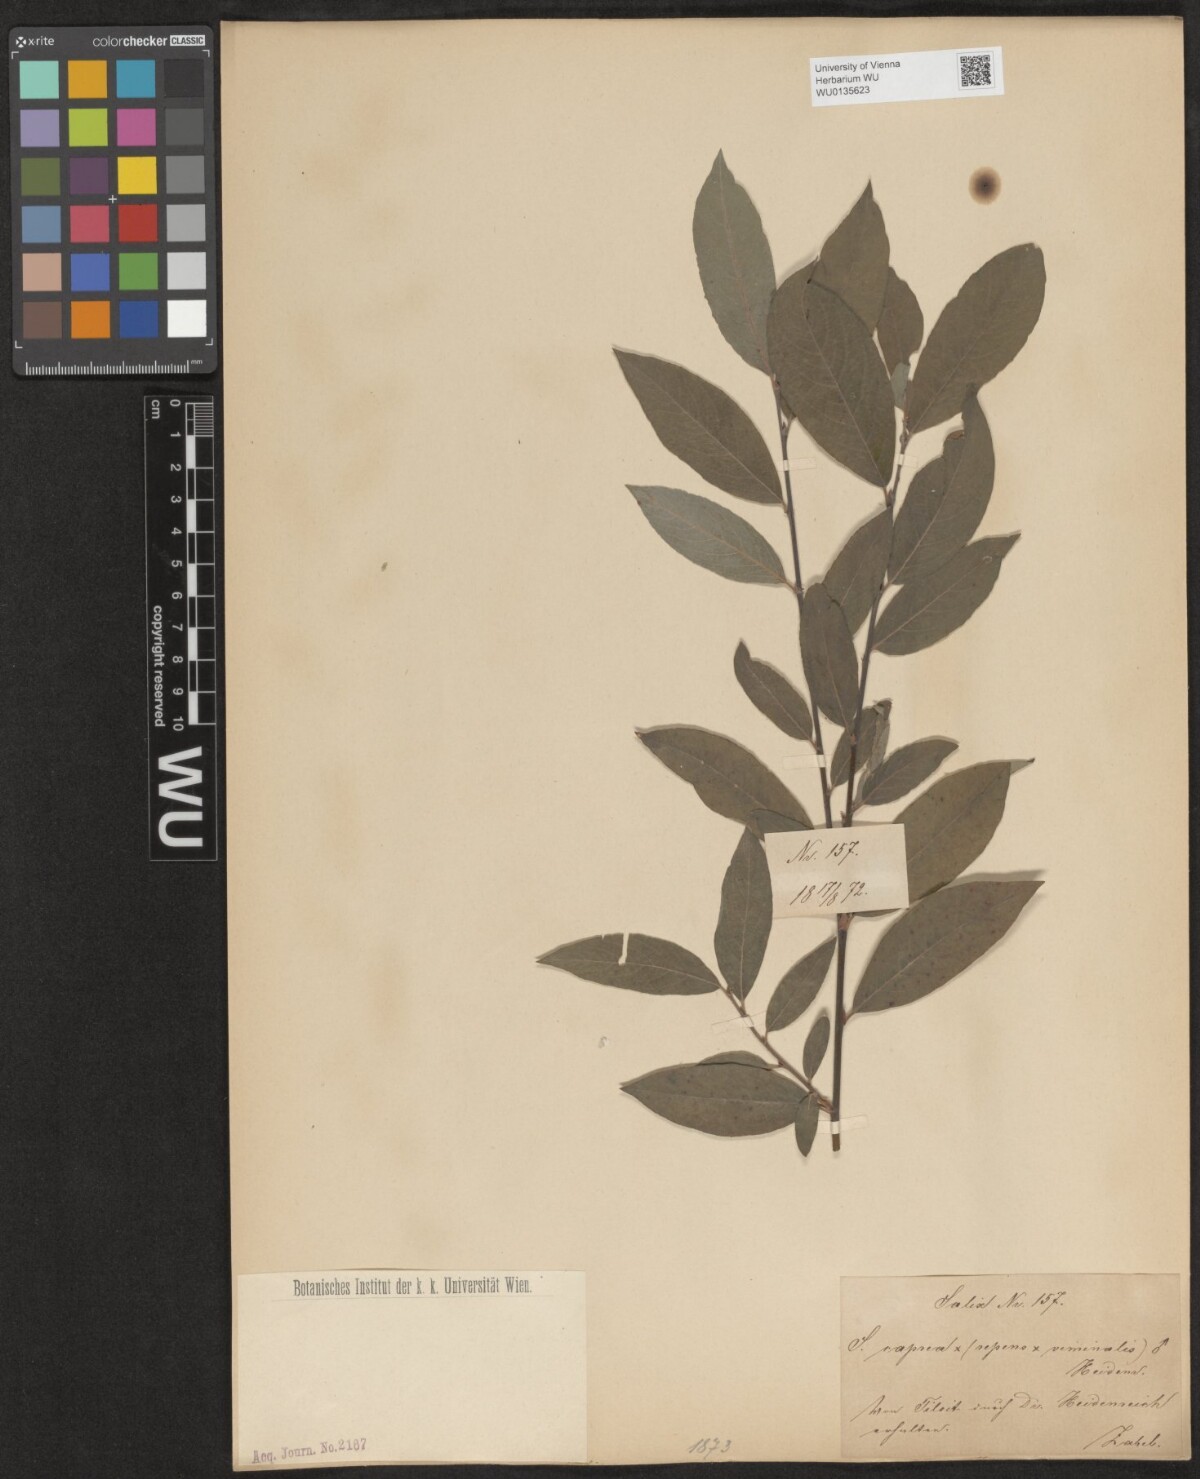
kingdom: Plantae
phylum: Tracheophyta
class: Magnoliopsida
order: Malpighiales
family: Salicaceae
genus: Salix
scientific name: Salix
